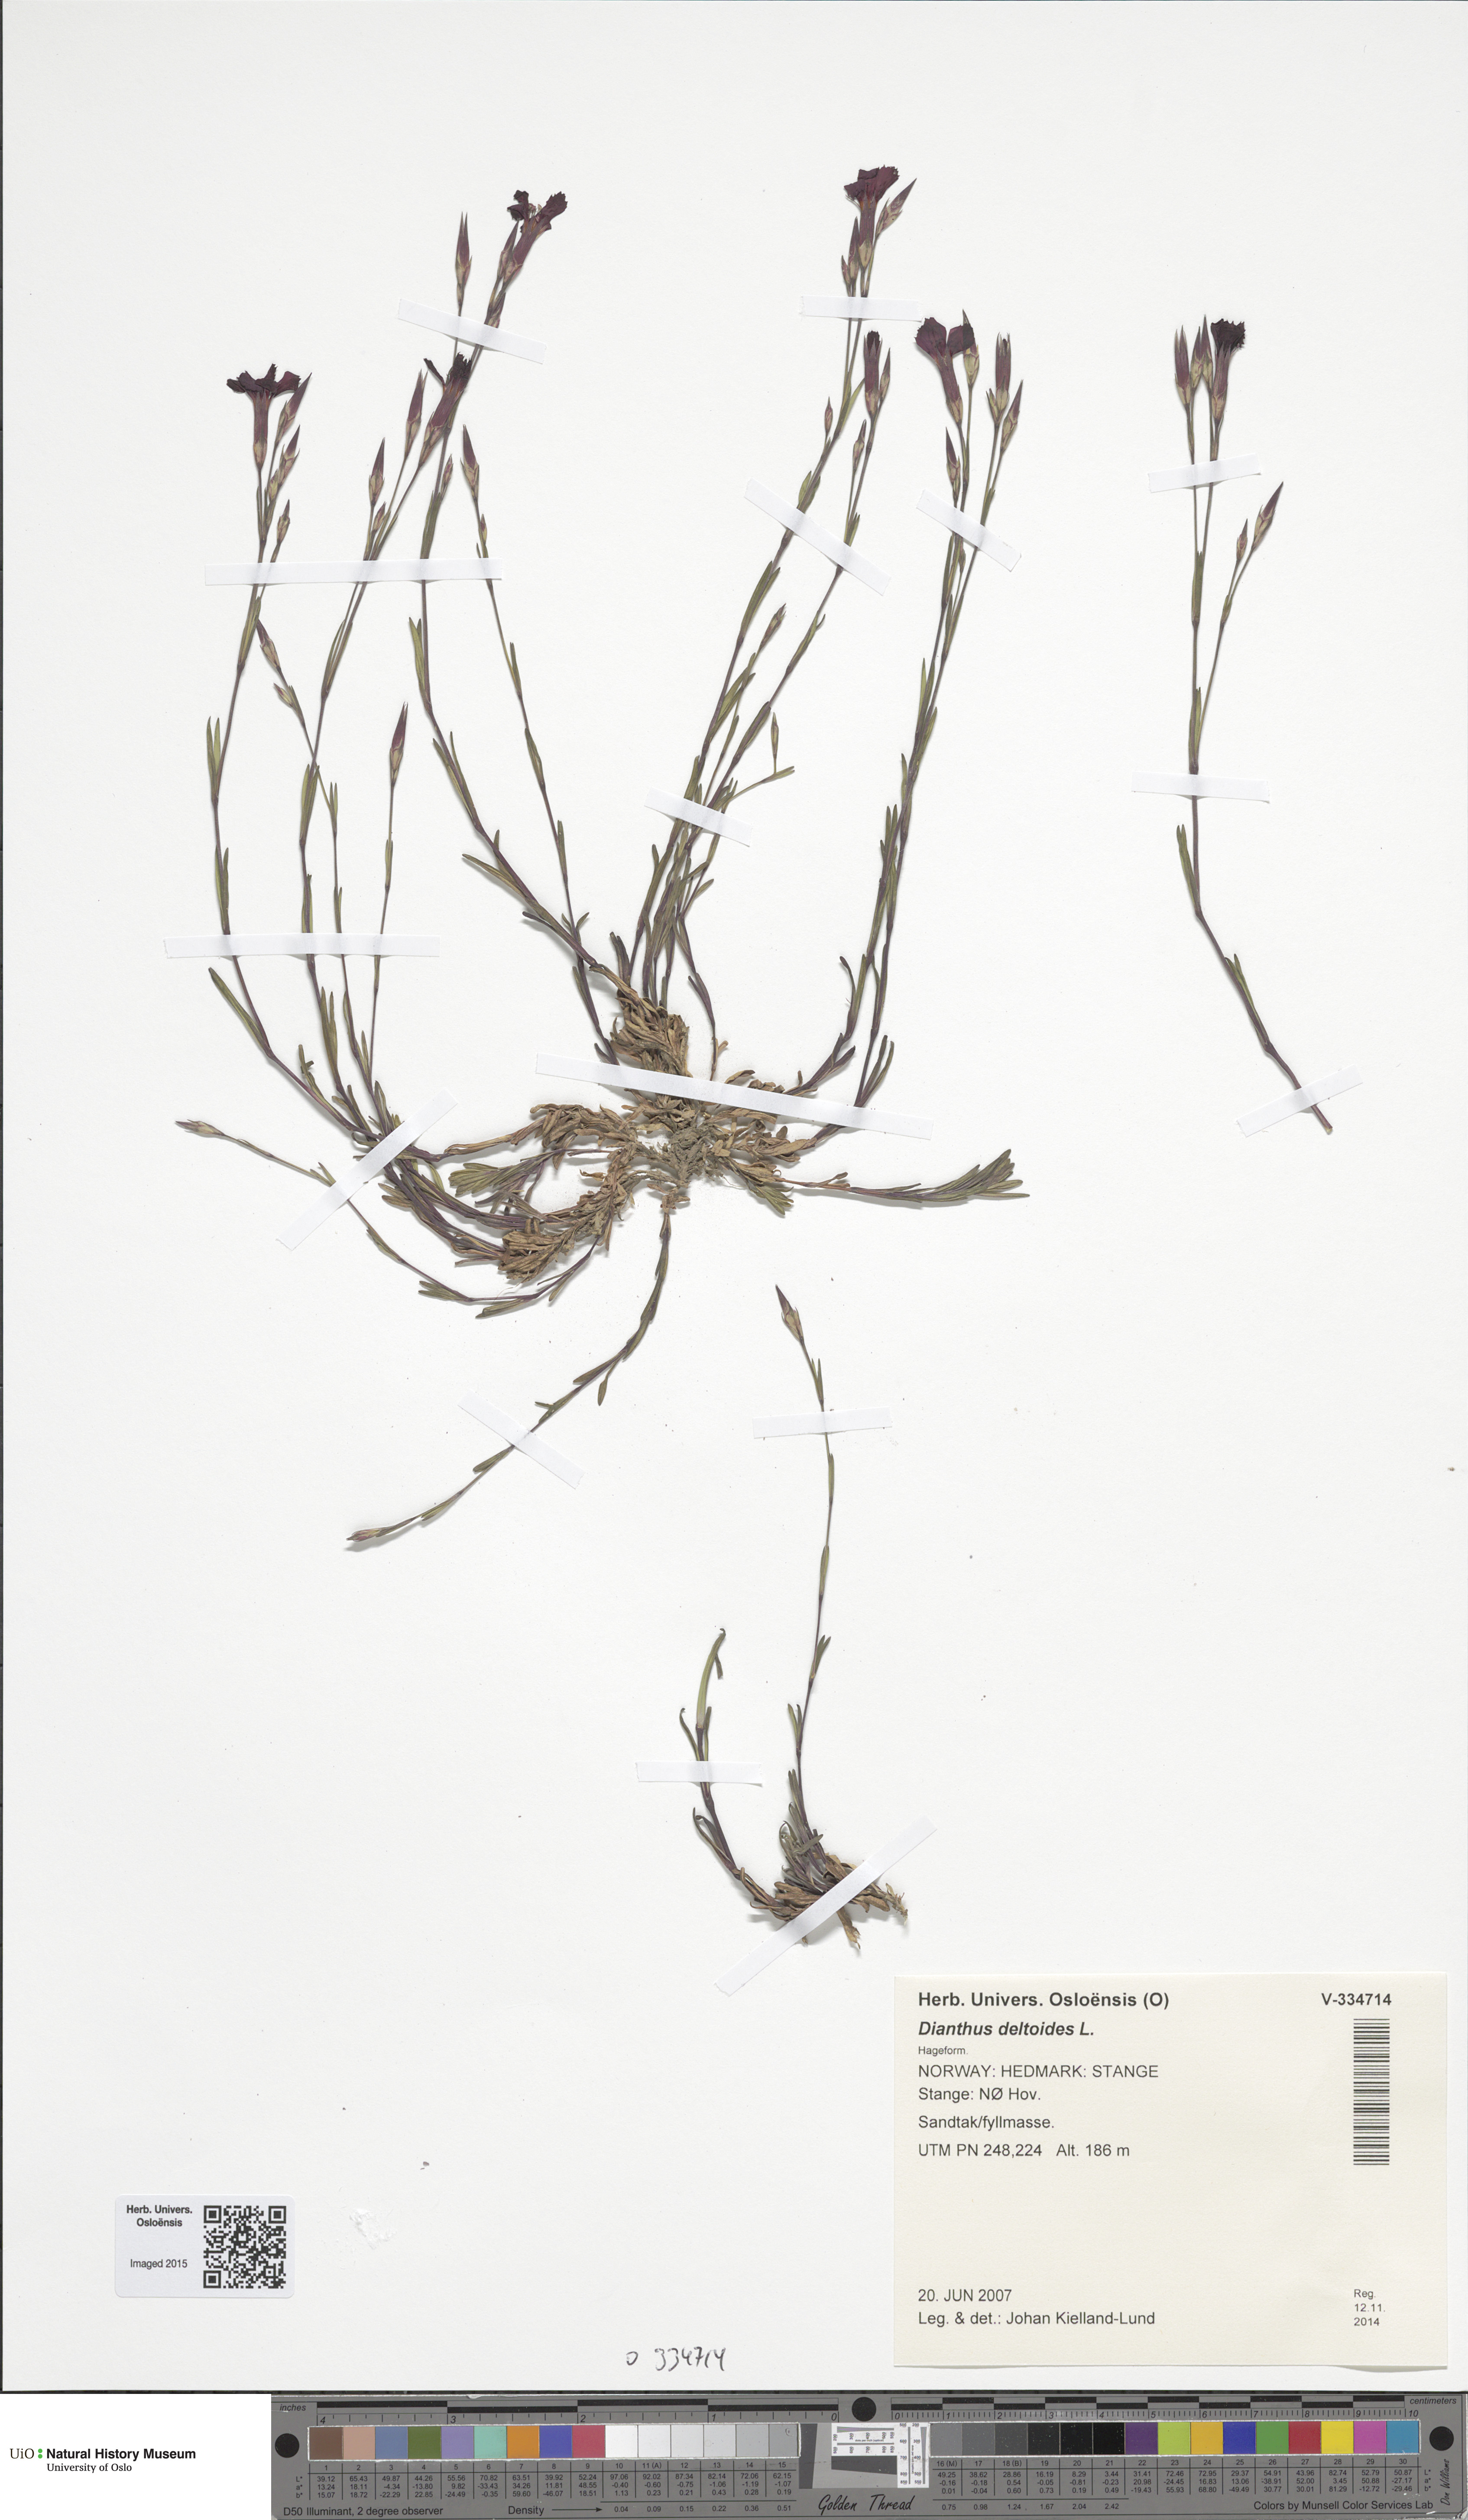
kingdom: Plantae
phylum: Tracheophyta
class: Magnoliopsida
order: Caryophyllales
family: Caryophyllaceae
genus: Dianthus
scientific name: Dianthus deltoides
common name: Maiden pink
